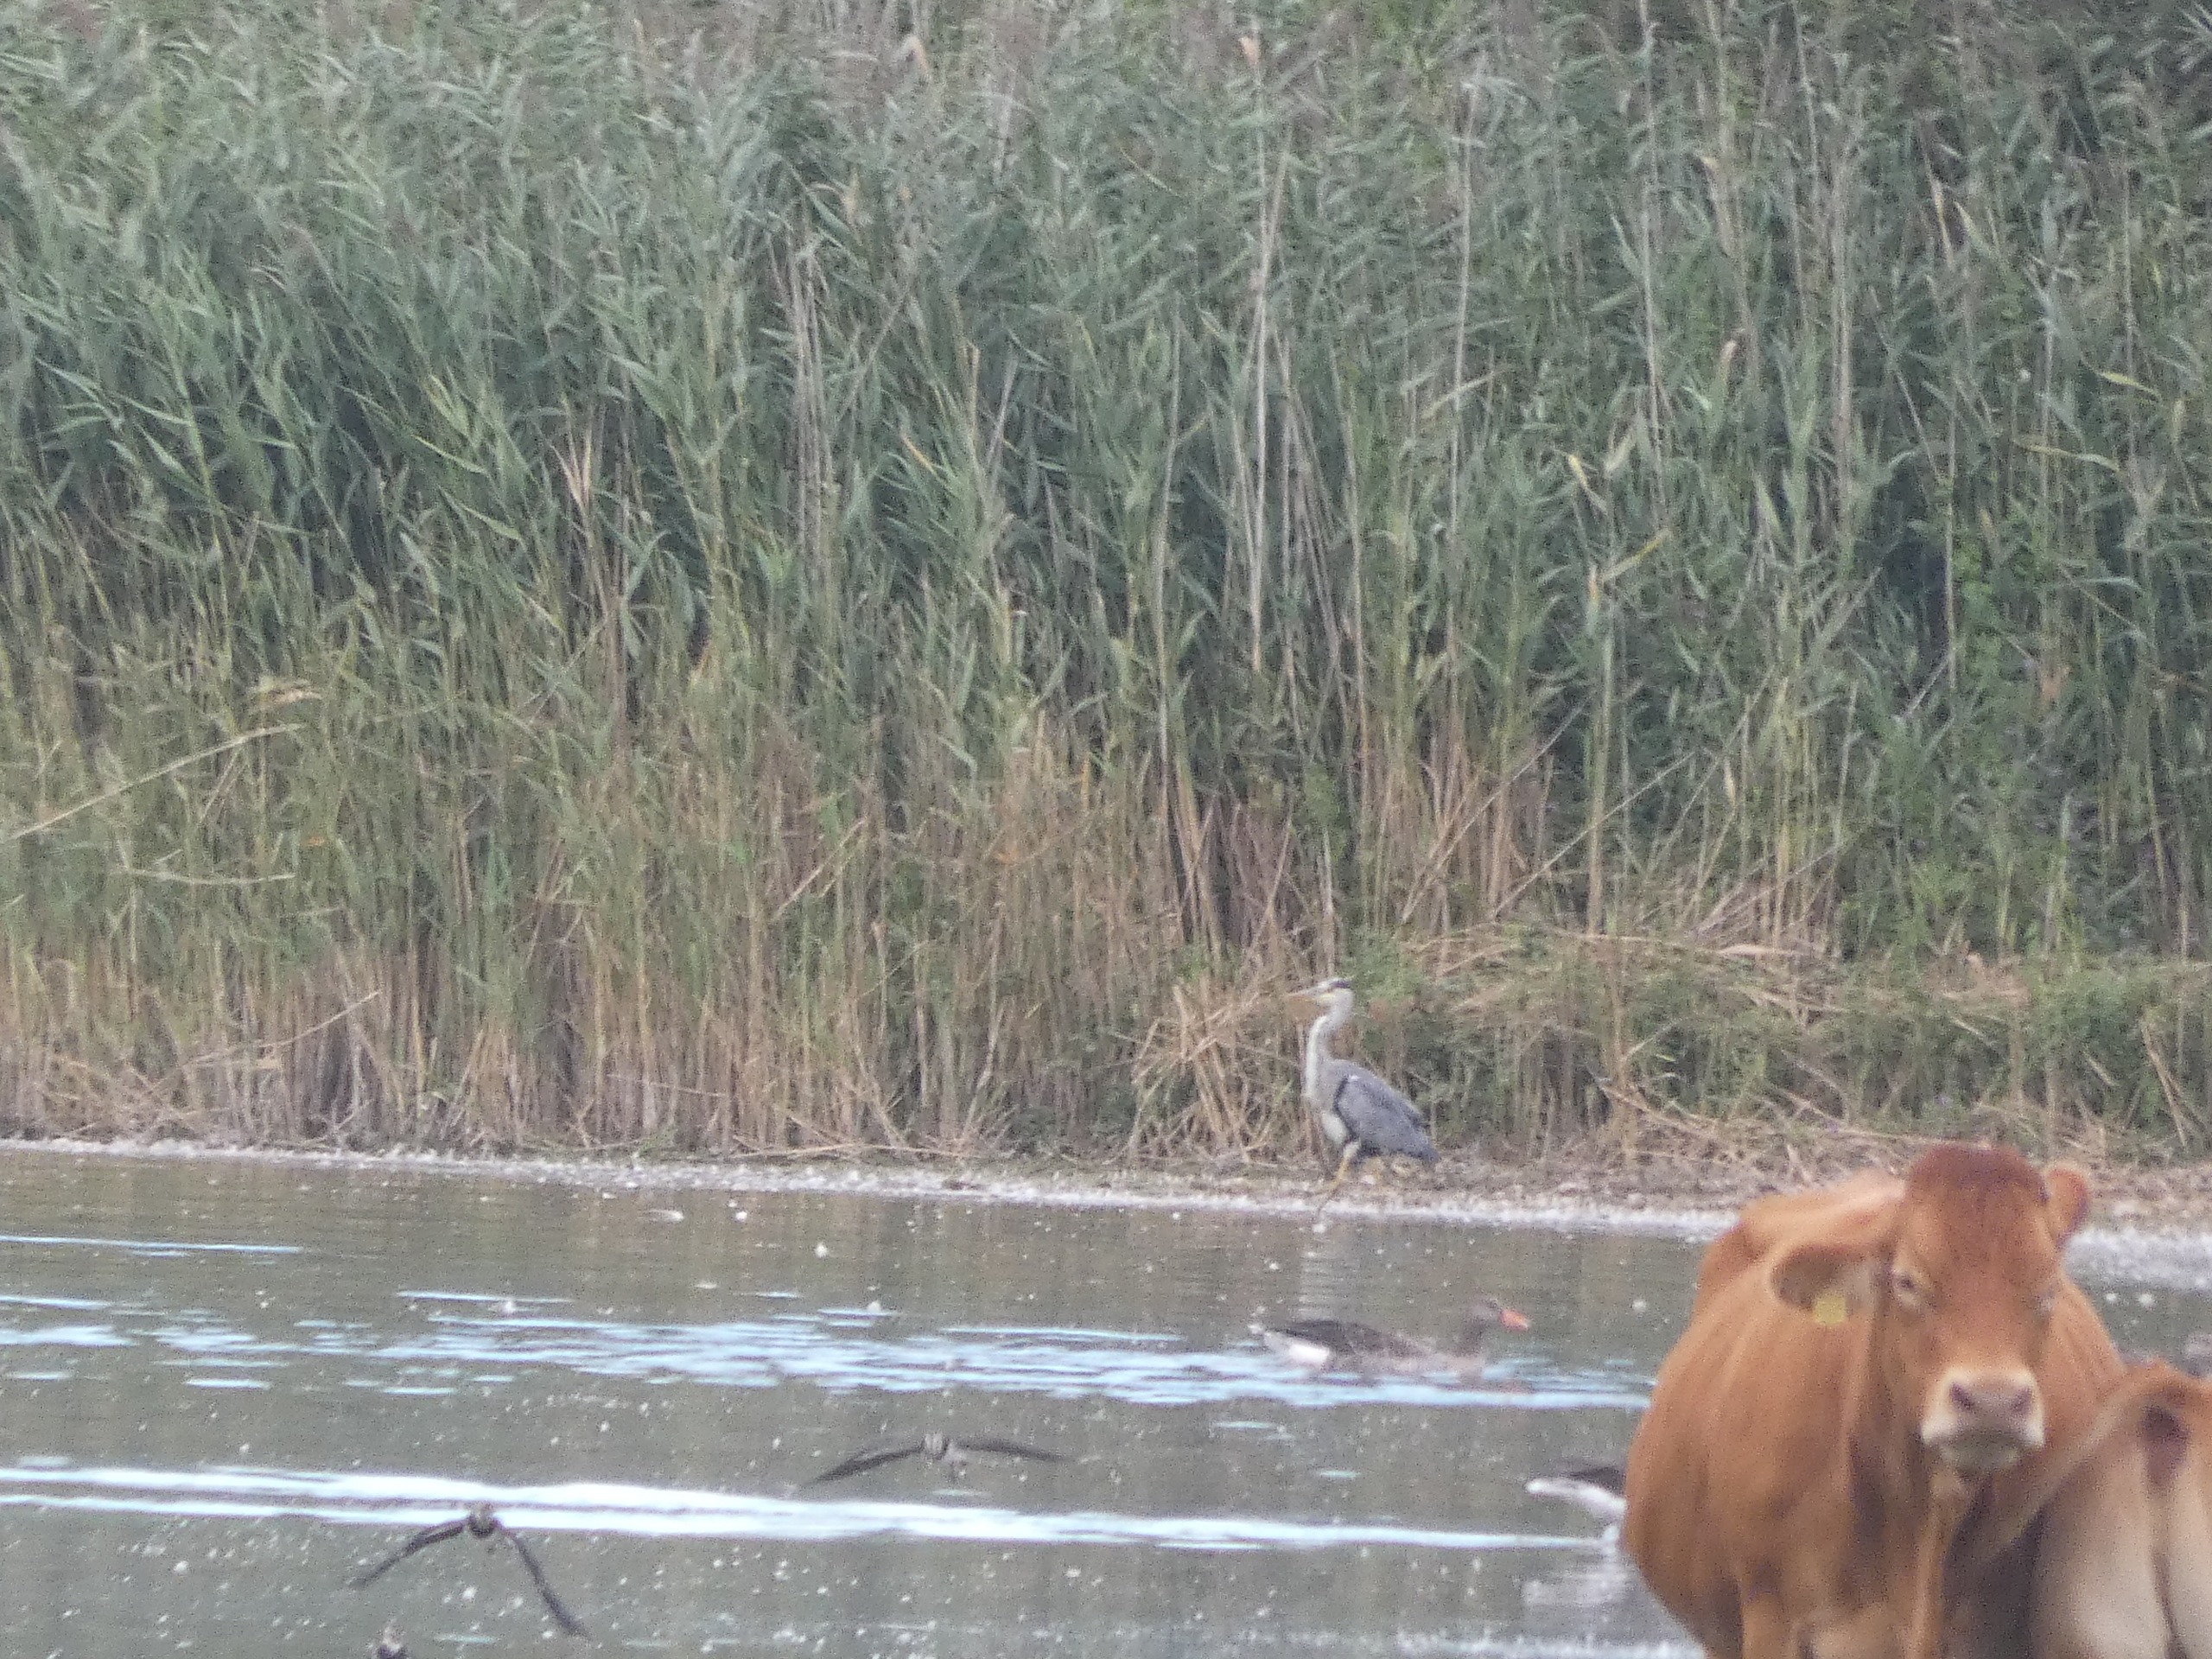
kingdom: Animalia
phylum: Chordata
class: Aves
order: Pelecaniformes
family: Ardeidae
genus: Ardea
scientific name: Ardea cinerea
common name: Fiskehejre
